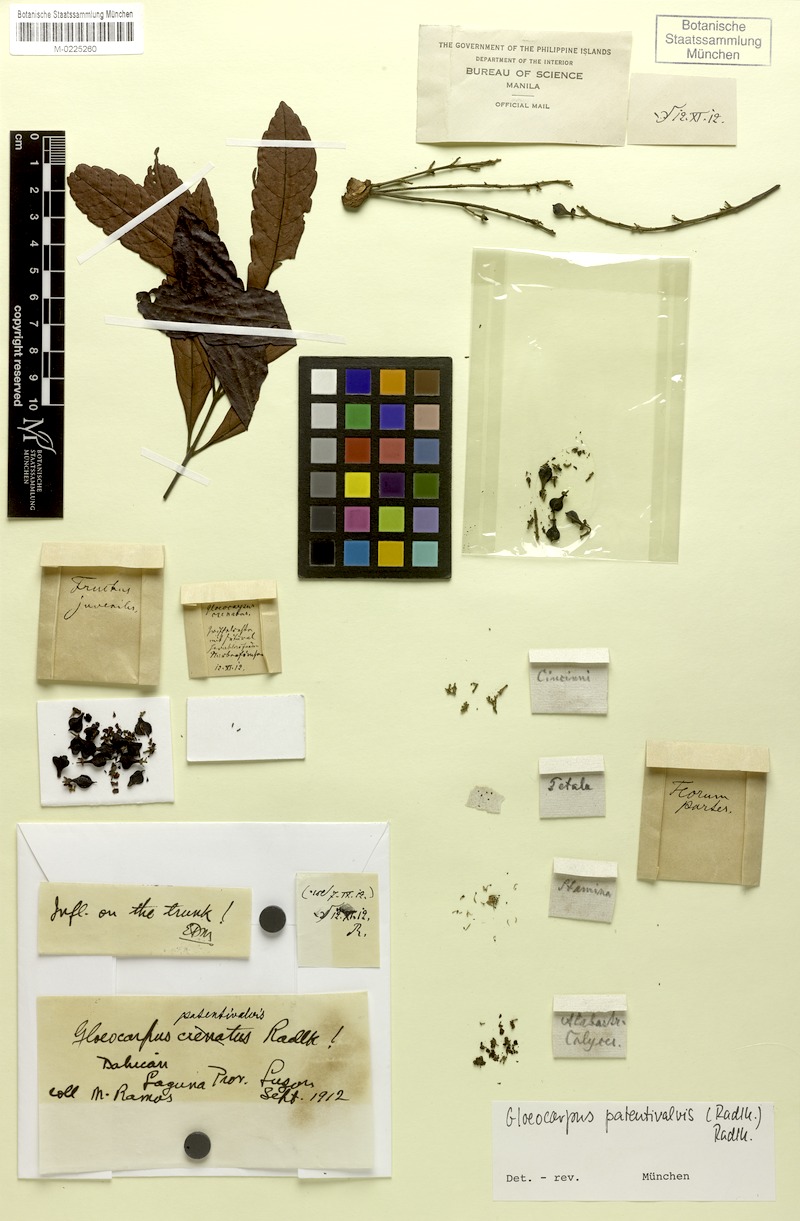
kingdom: Plantae
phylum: Tracheophyta
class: Magnoliopsida
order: Sapindales
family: Sapindaceae
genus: Gloeocarpus
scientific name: Gloeocarpus patentivalvis
